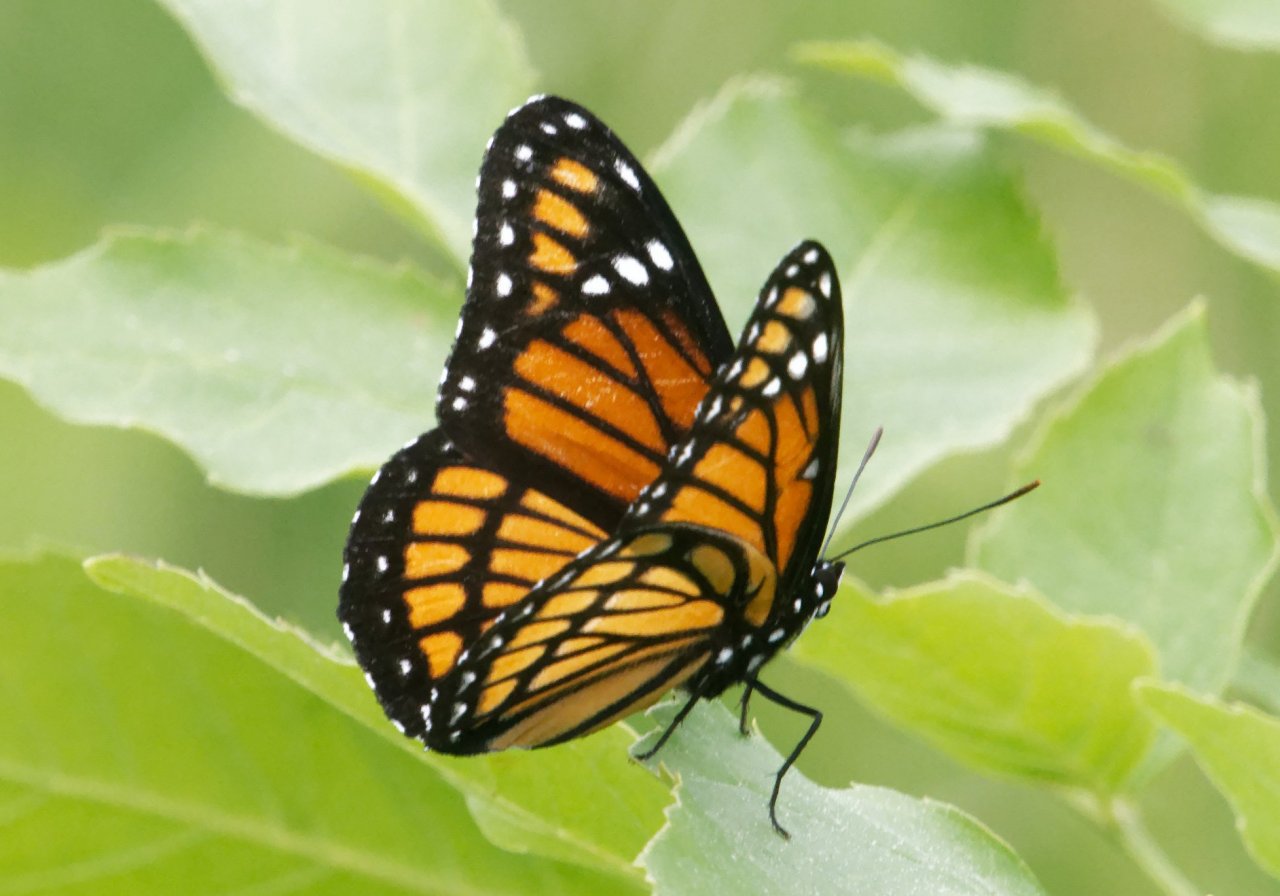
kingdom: Animalia
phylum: Arthropoda
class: Insecta
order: Lepidoptera
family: Nymphalidae
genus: Limenitis
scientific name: Limenitis archippus
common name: Viceroy
